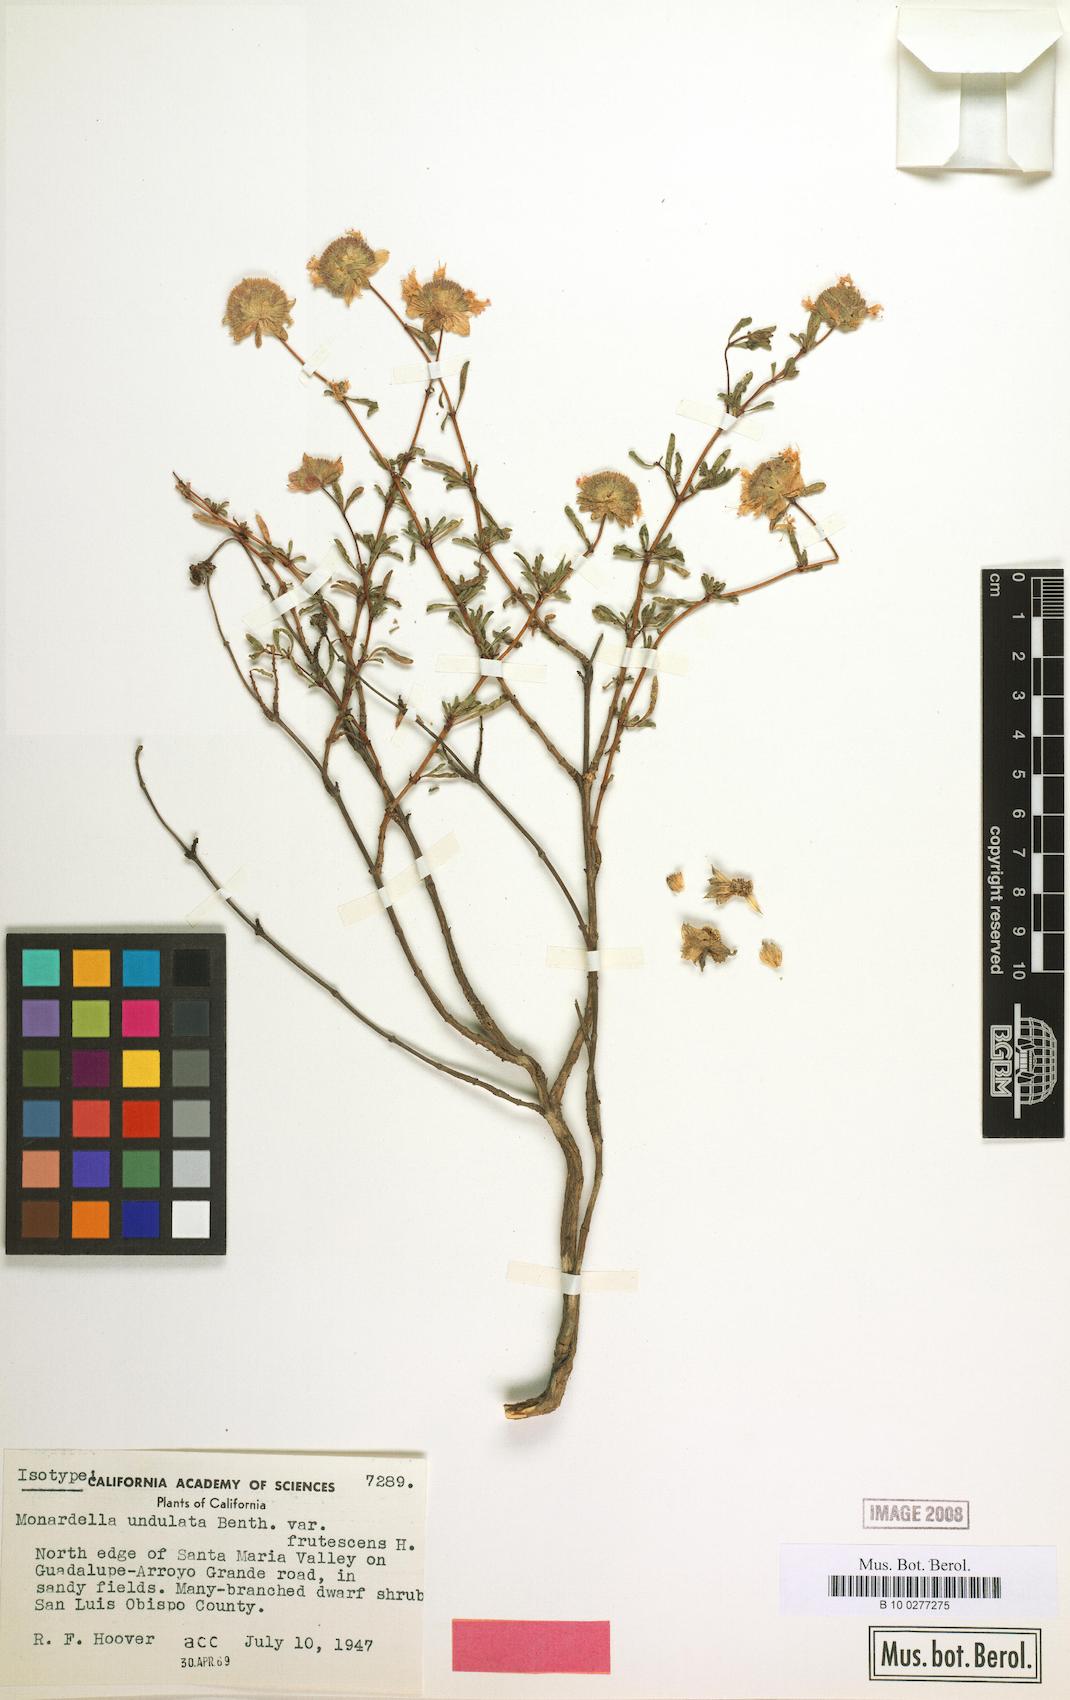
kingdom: Plantae
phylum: Tracheophyta
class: Magnoliopsida
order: Lamiales
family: Lamiaceae
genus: Monardella
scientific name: Monardella undulata
